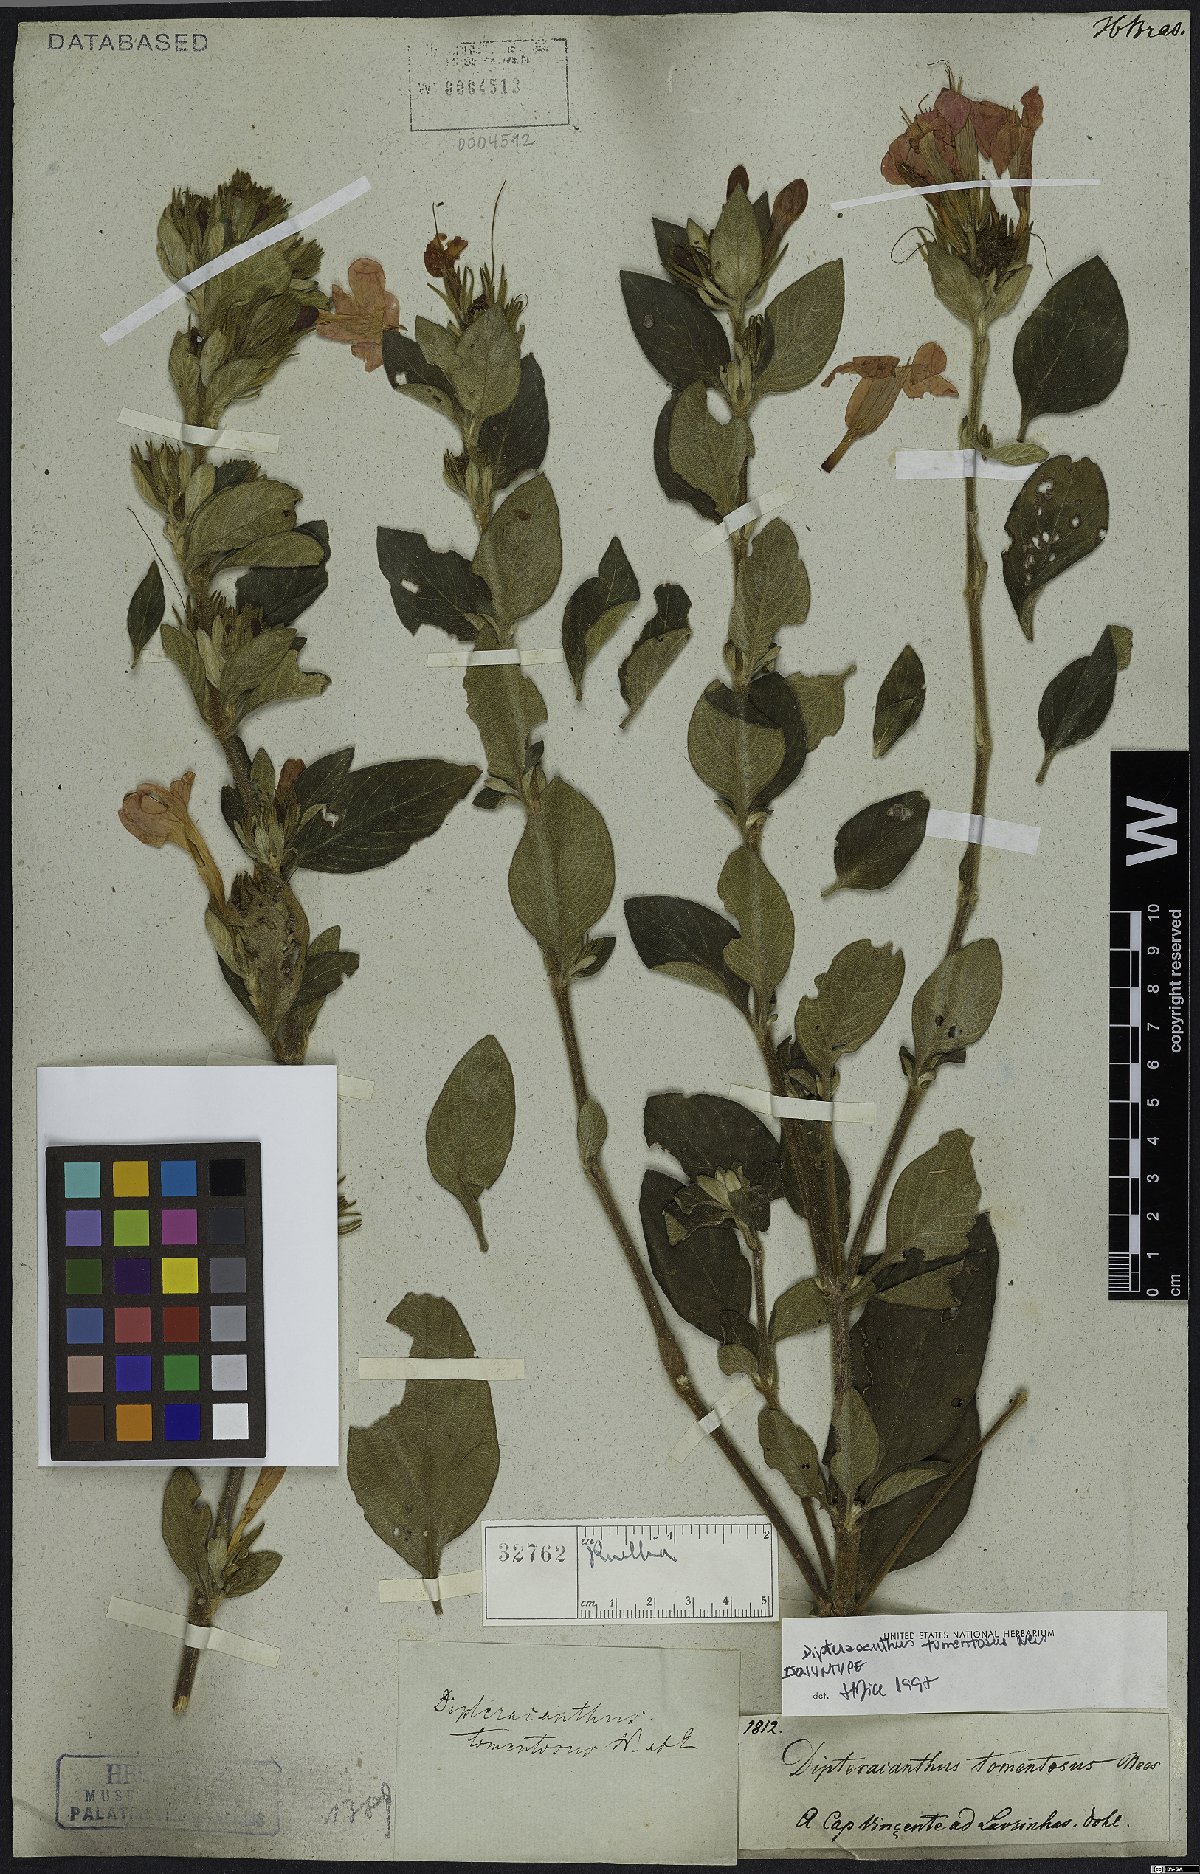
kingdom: Plantae
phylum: Tracheophyta
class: Magnoliopsida
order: Lamiales
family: Acanthaceae
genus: Ruellia
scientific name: Ruellia Dipteracanthus tomentosus
